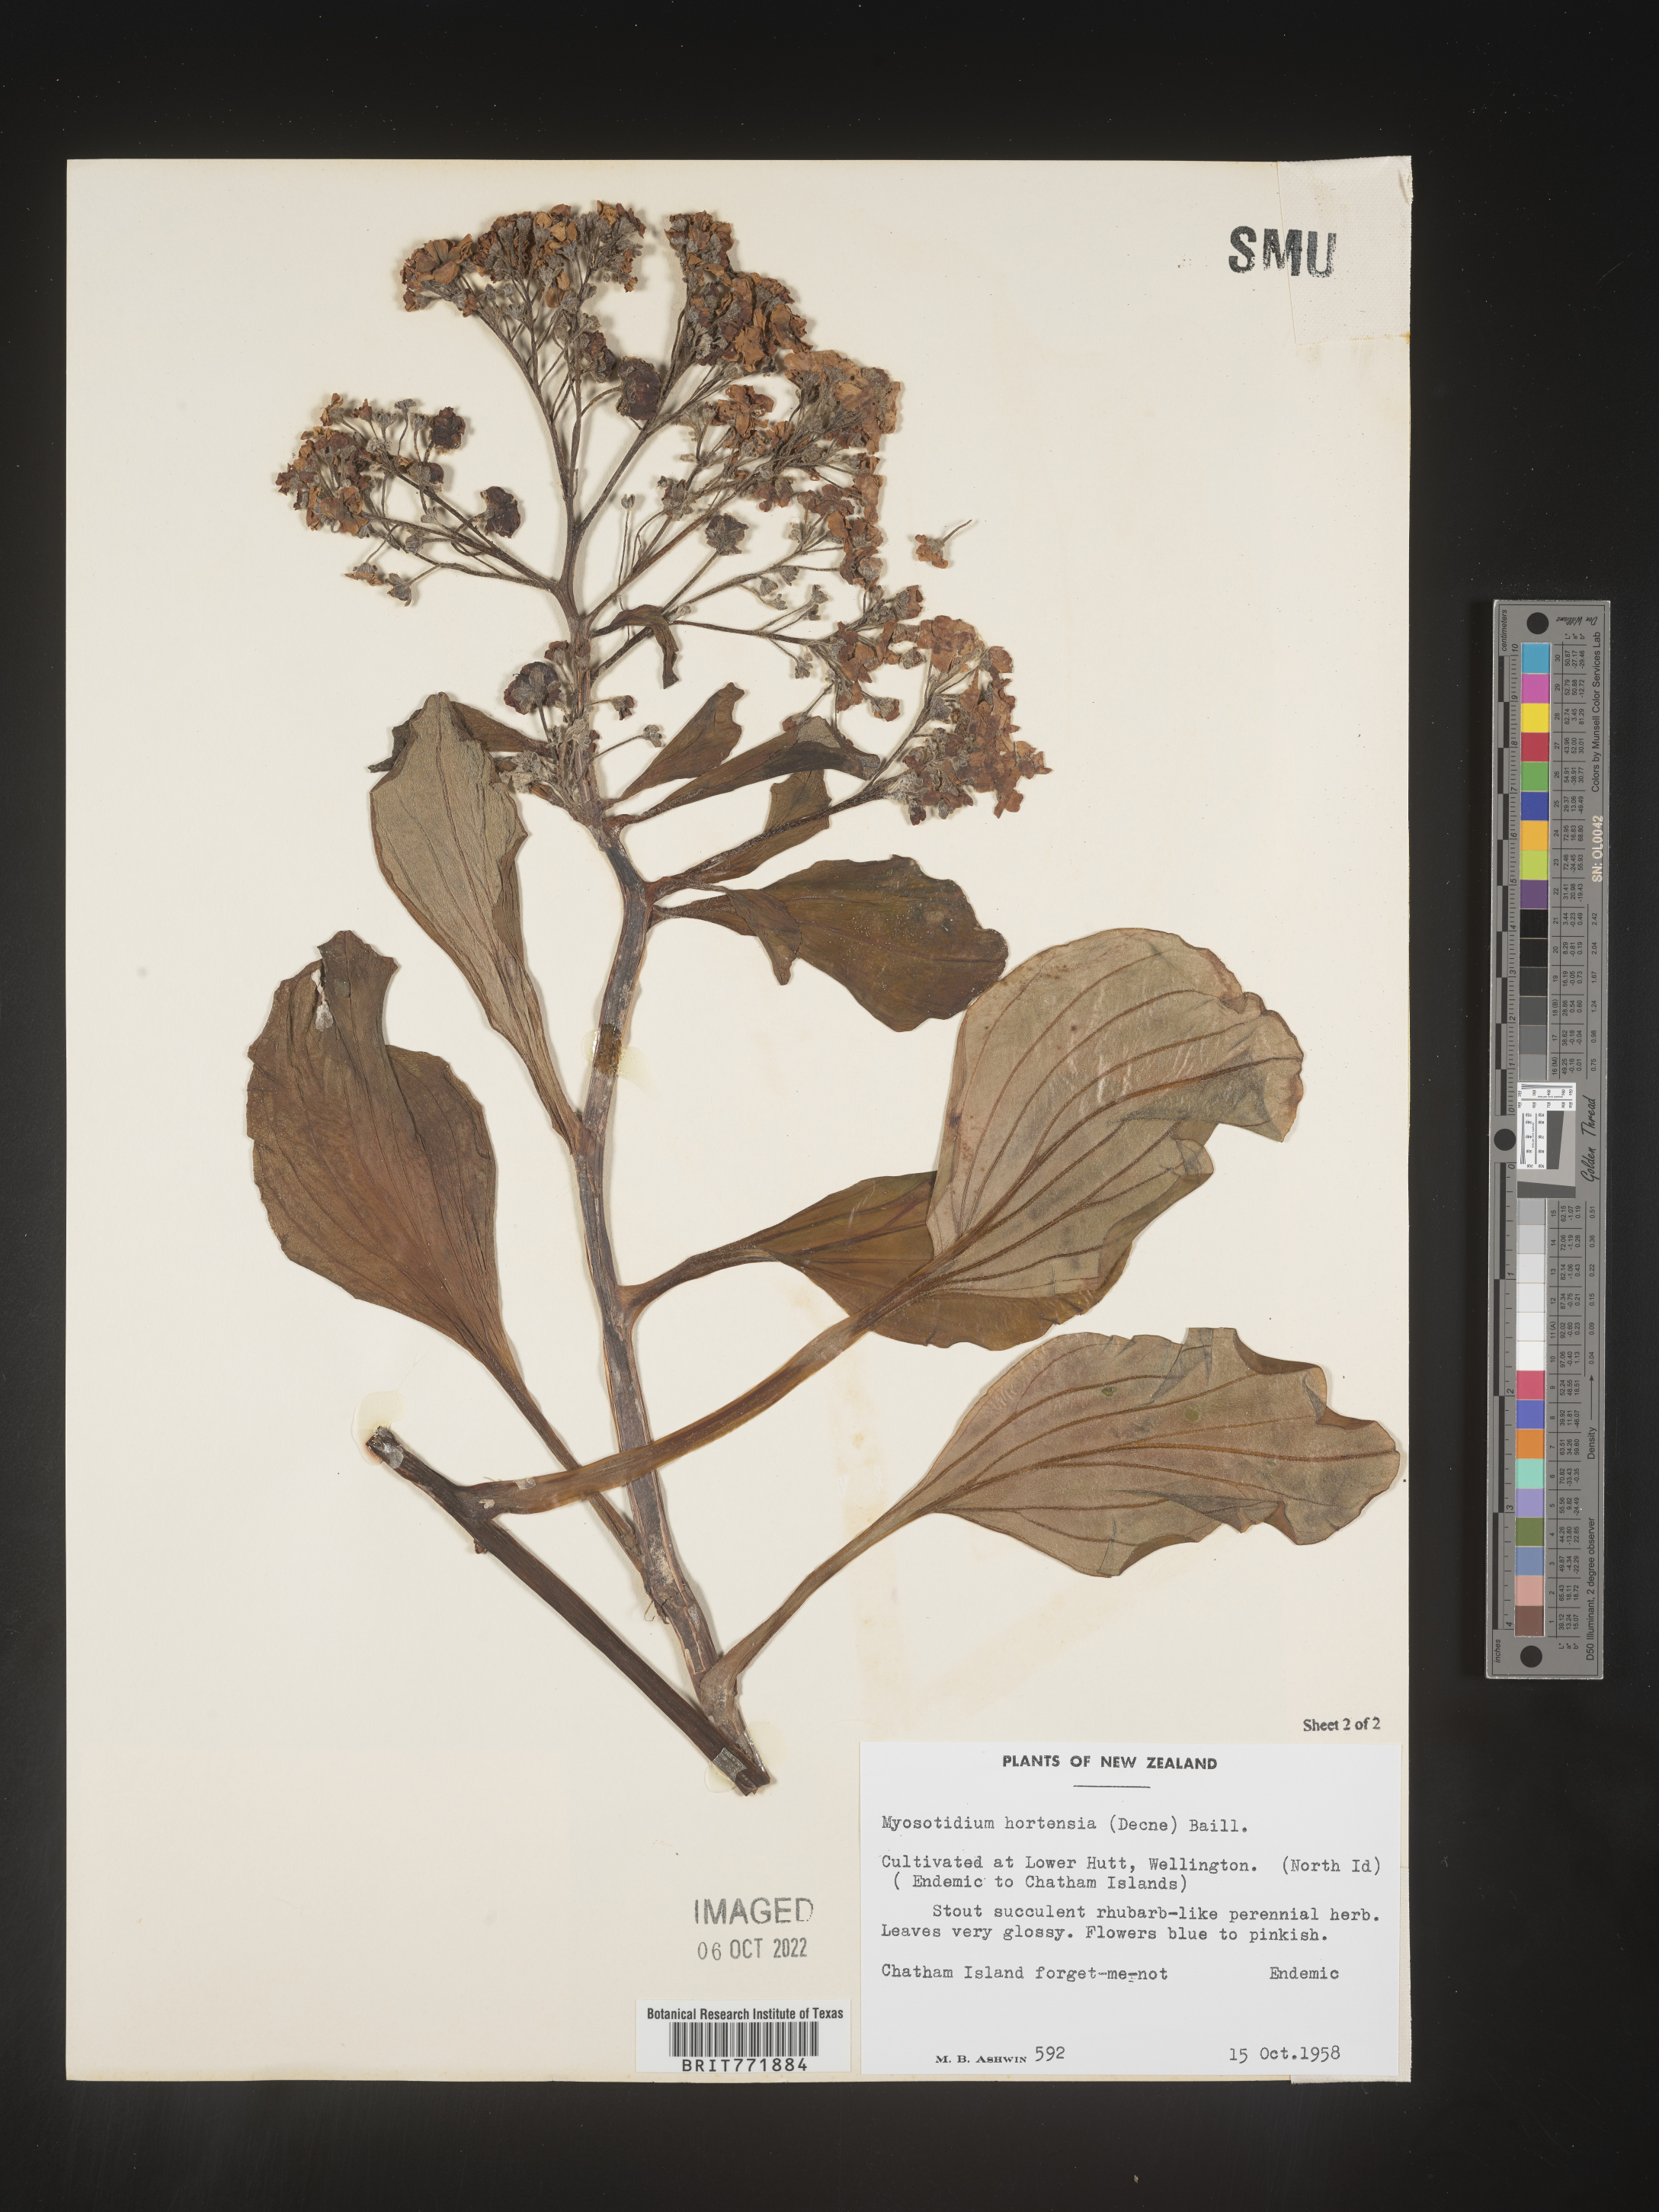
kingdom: Plantae
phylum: Tracheophyta
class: Magnoliopsida
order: Boraginales
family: Boraginaceae
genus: Myosotidium
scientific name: Myosotidium hortensia
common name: Giant forget-me-not
